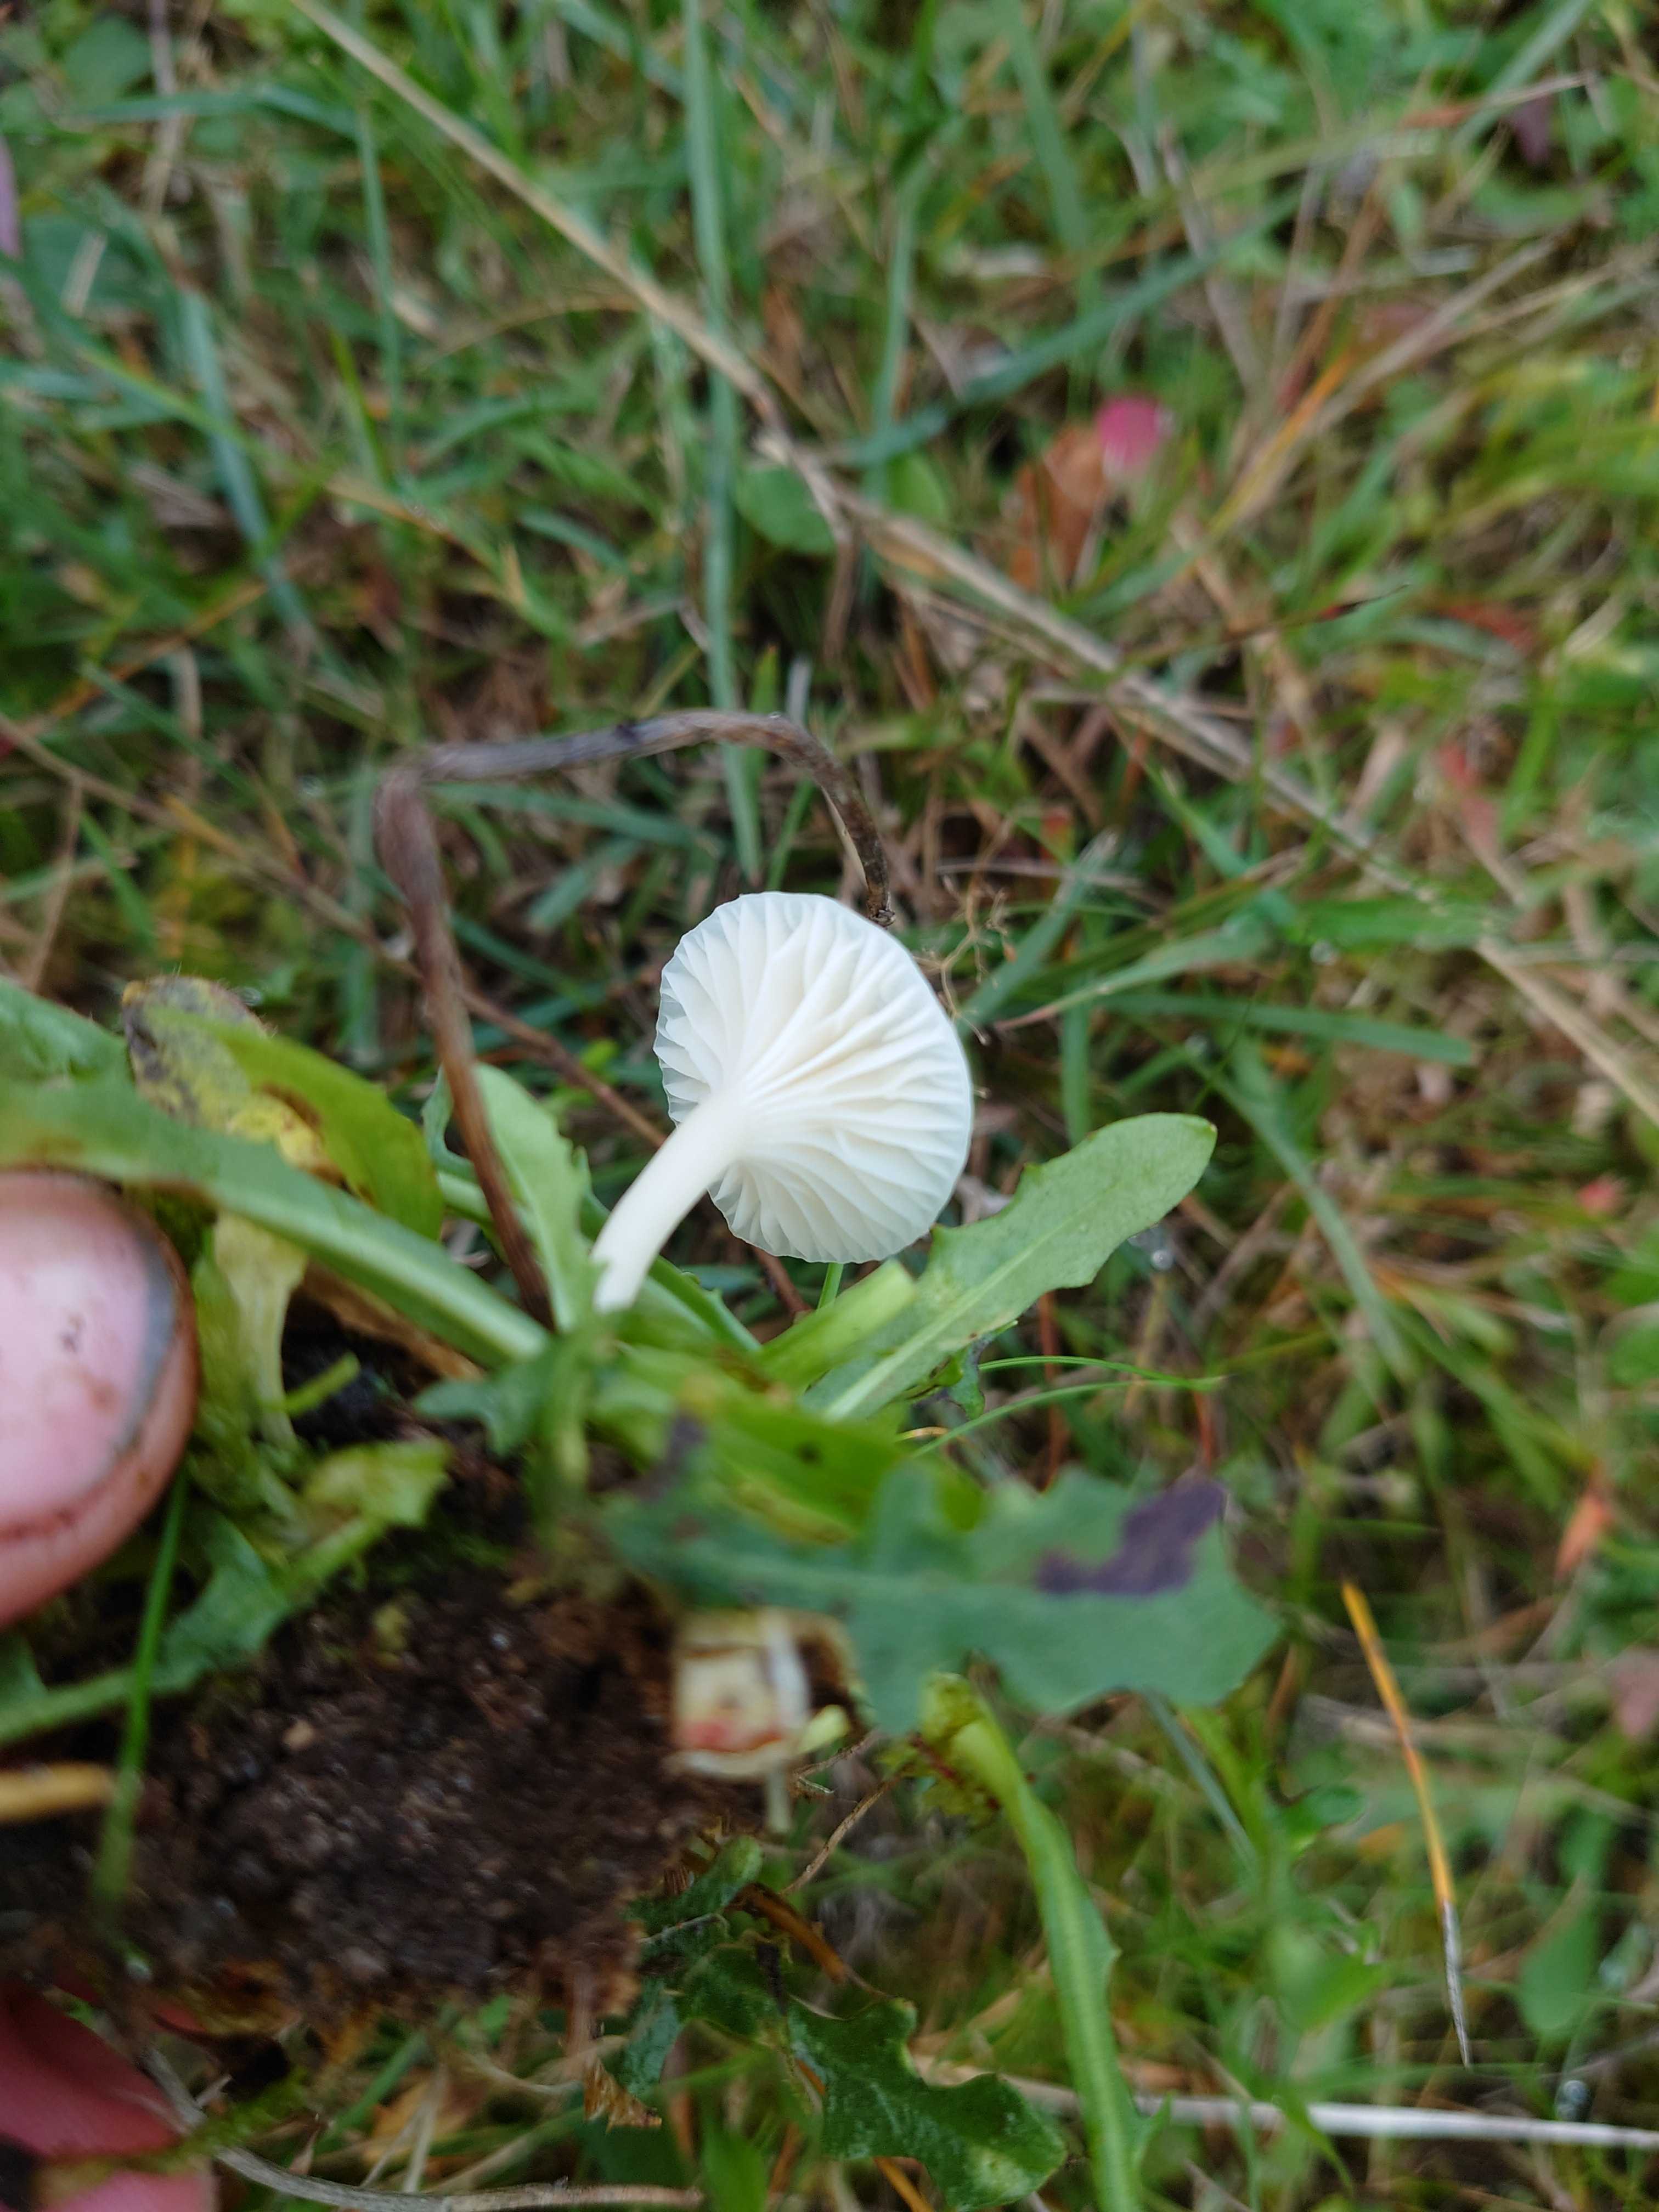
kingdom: Fungi
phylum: Basidiomycota
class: Agaricomycetes
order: Agaricales
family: Hygrophoraceae
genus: Cuphophyllus
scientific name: Cuphophyllus virgineus
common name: snehvid vokshat
